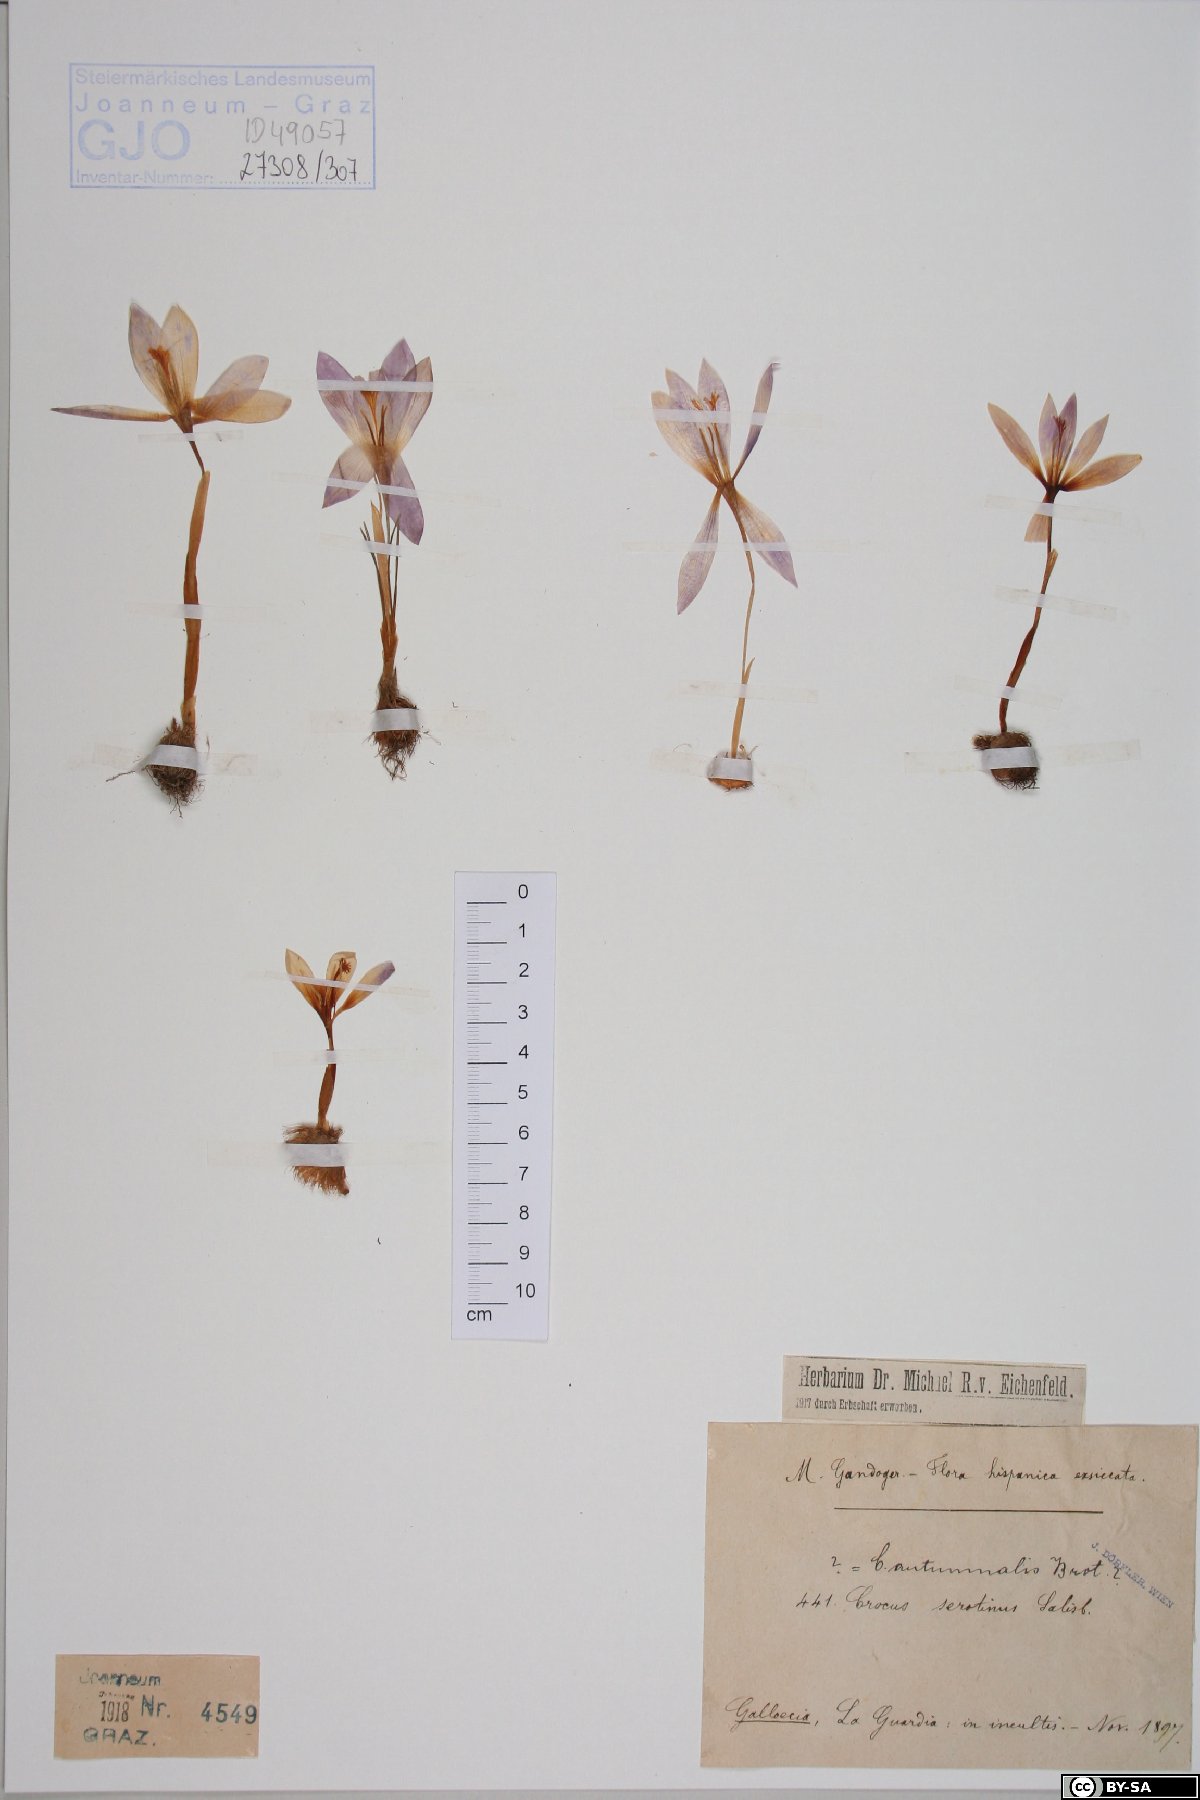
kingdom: Plantae
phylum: Tracheophyta
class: Liliopsida
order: Asparagales
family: Iridaceae
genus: Crocus
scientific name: Crocus vernus
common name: Spring crocus
